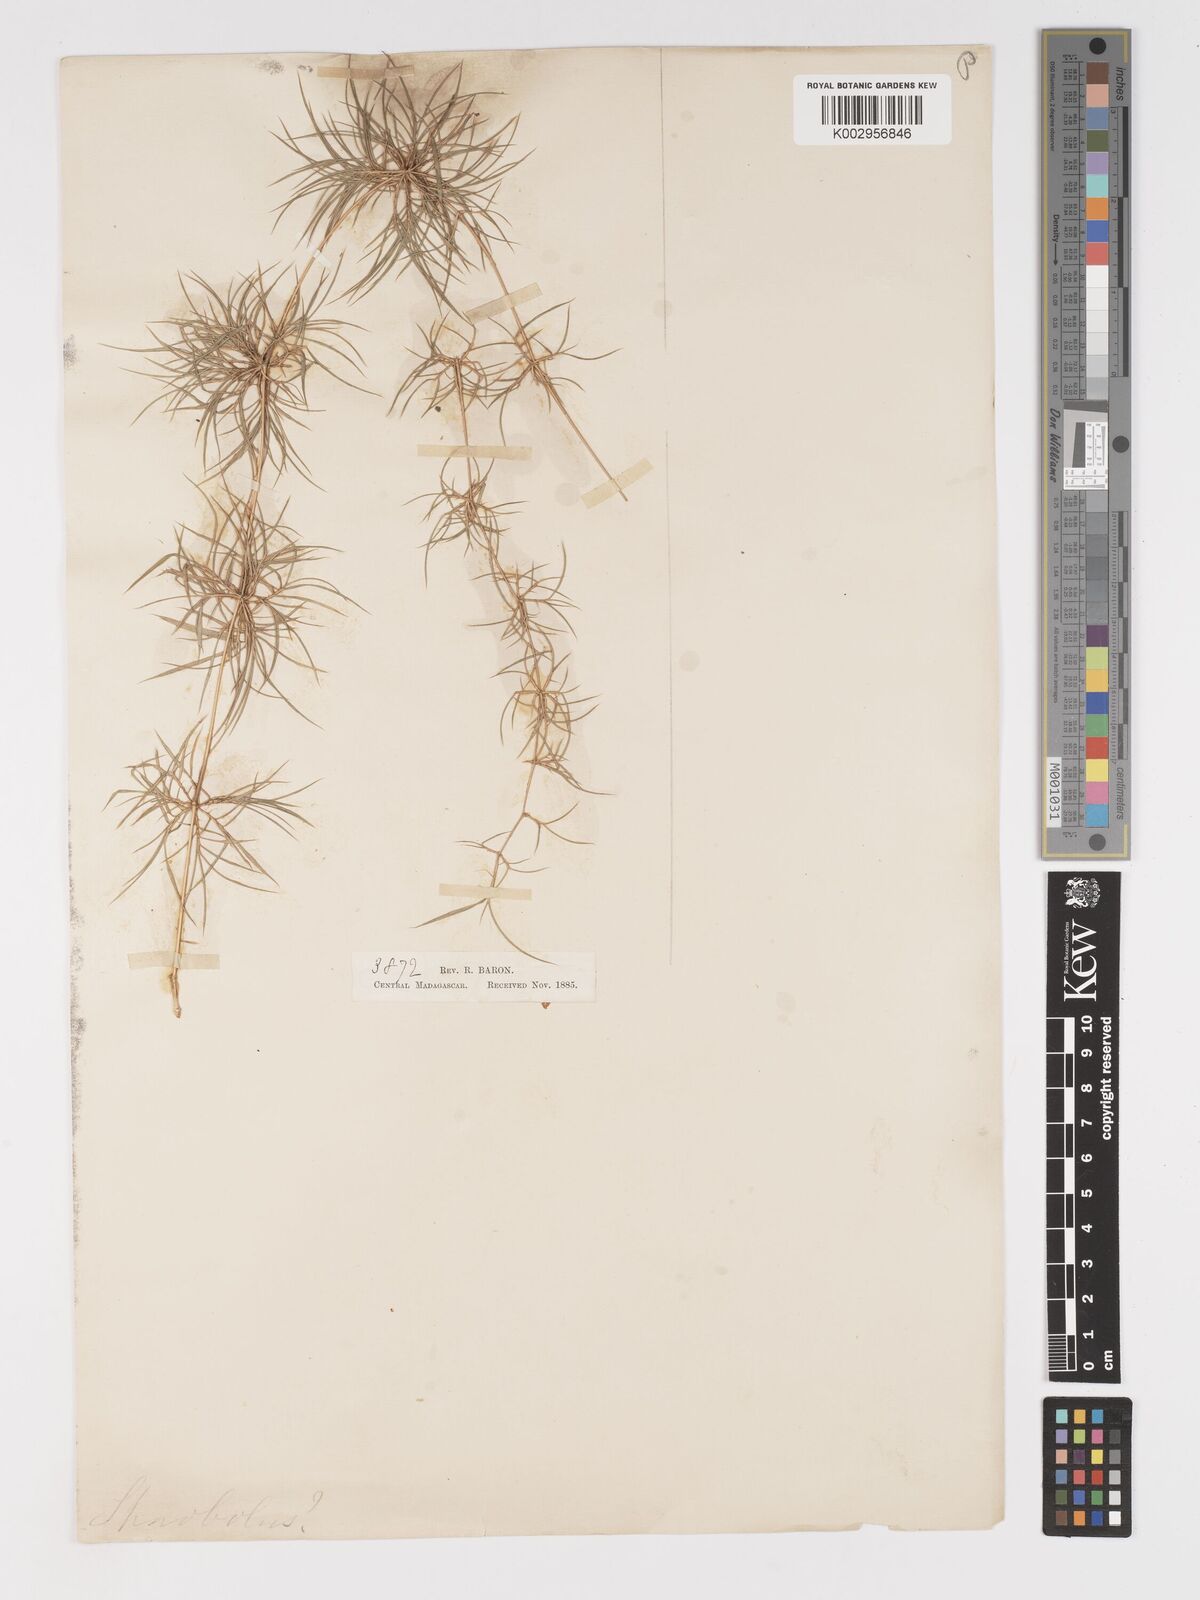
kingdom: Plantae
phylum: Tracheophyta
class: Liliopsida
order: Poales
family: Poaceae
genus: Nastus
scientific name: Nastus aristatus
